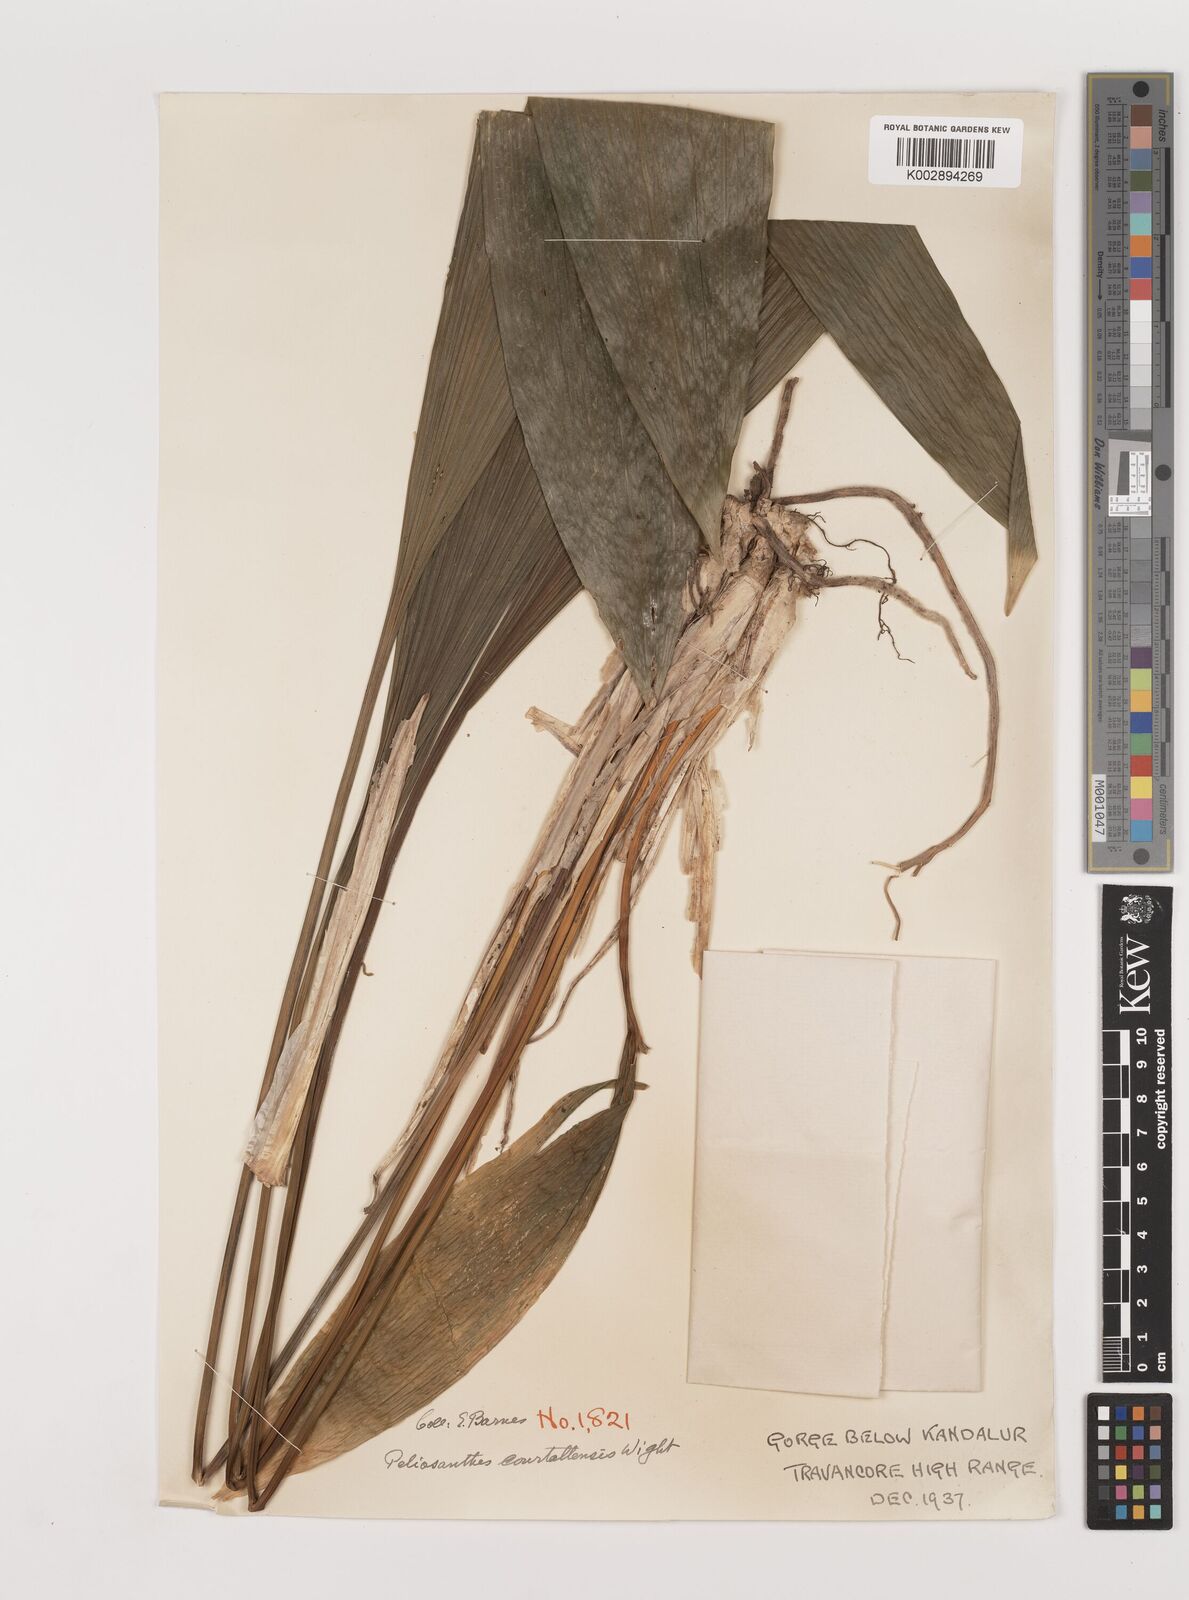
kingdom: Plantae
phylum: Tracheophyta
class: Liliopsida
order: Asparagales
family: Asparagaceae
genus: Peliosanthes
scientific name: Peliosanthes teta
